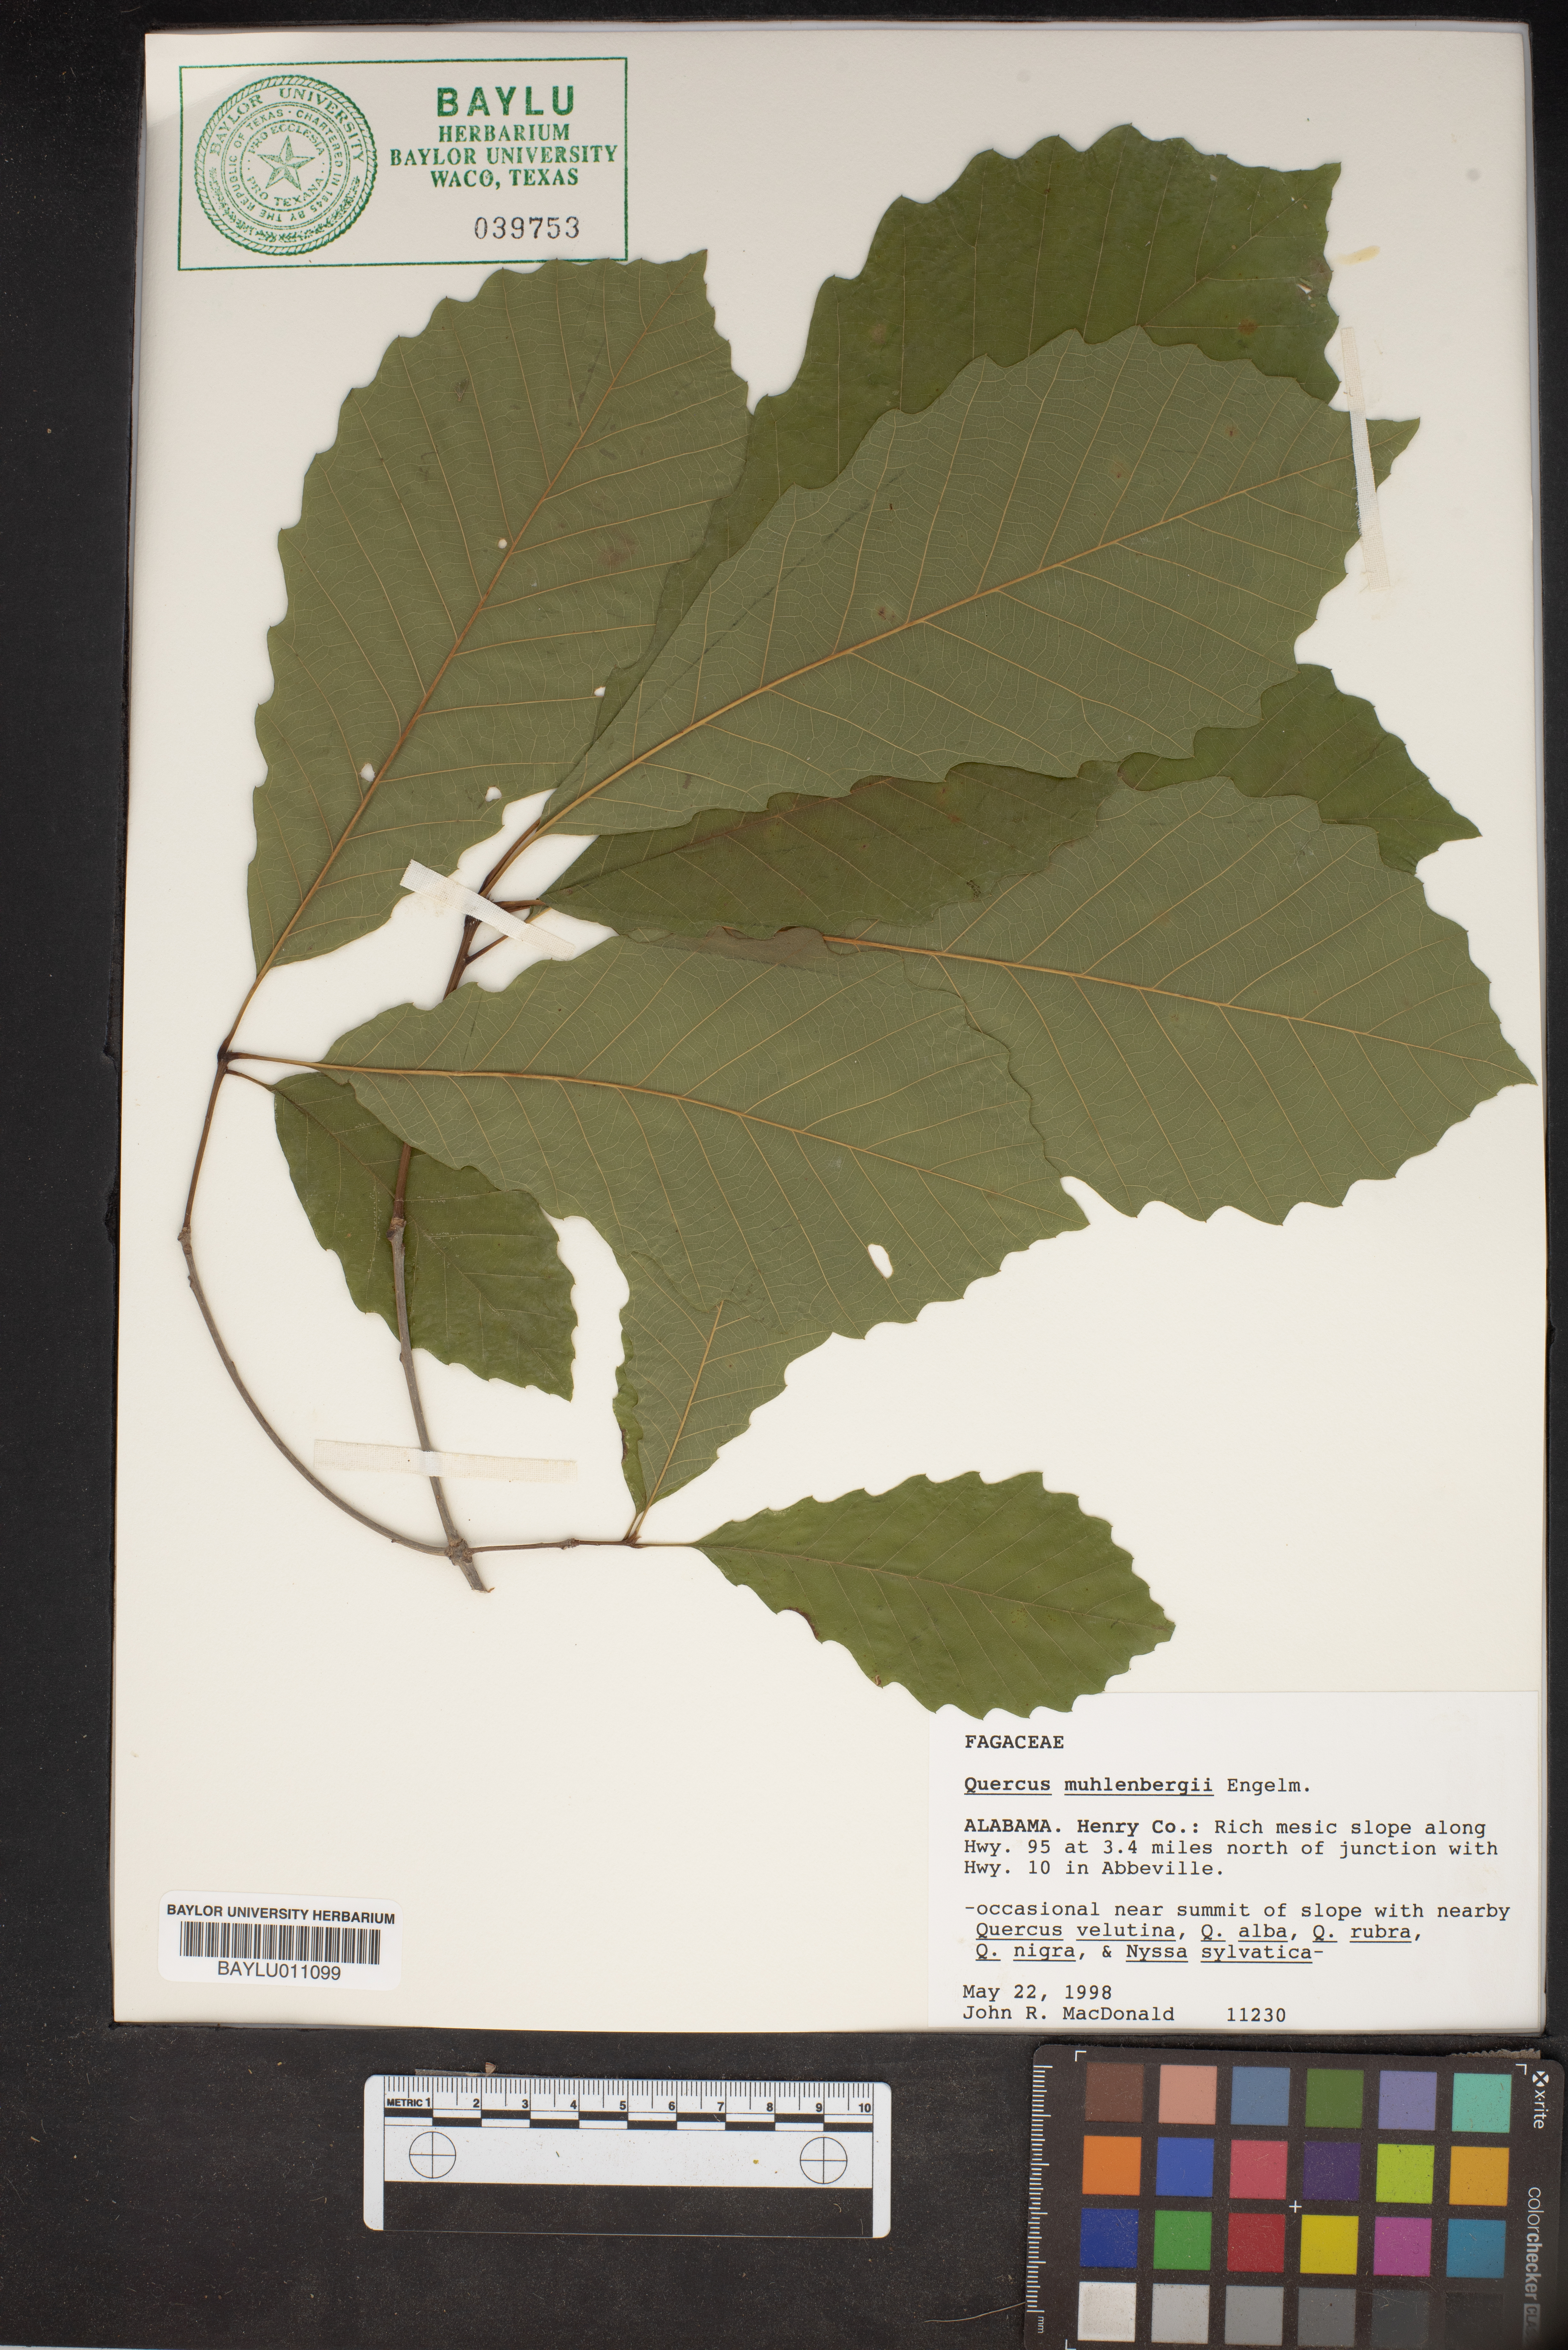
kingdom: Plantae
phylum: Tracheophyta
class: Magnoliopsida
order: Fagales
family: Fagaceae
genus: Quercus
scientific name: Quercus muehlenbergii
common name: Chinkapin oak
